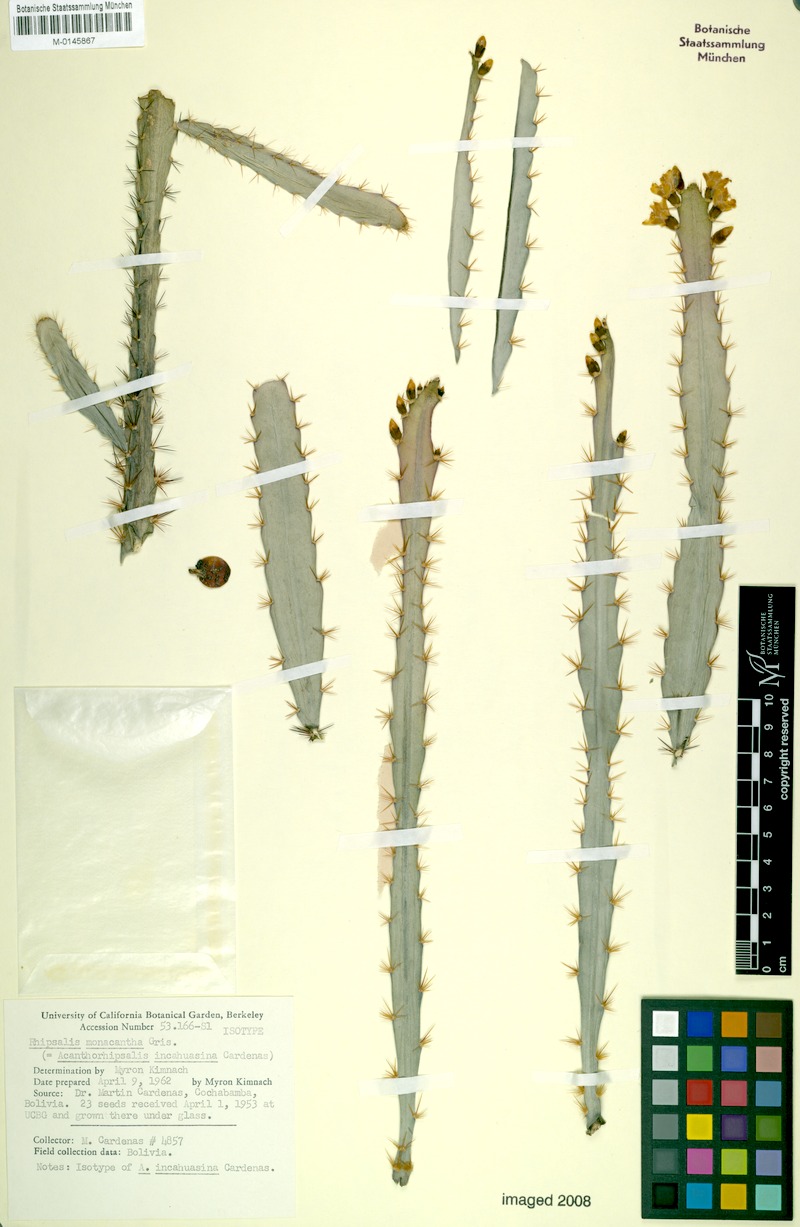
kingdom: Plantae
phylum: Tracheophyta
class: Magnoliopsida
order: Caryophyllales
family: Cactaceae
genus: Pfeiffera
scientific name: Pfeiffera monacantha
